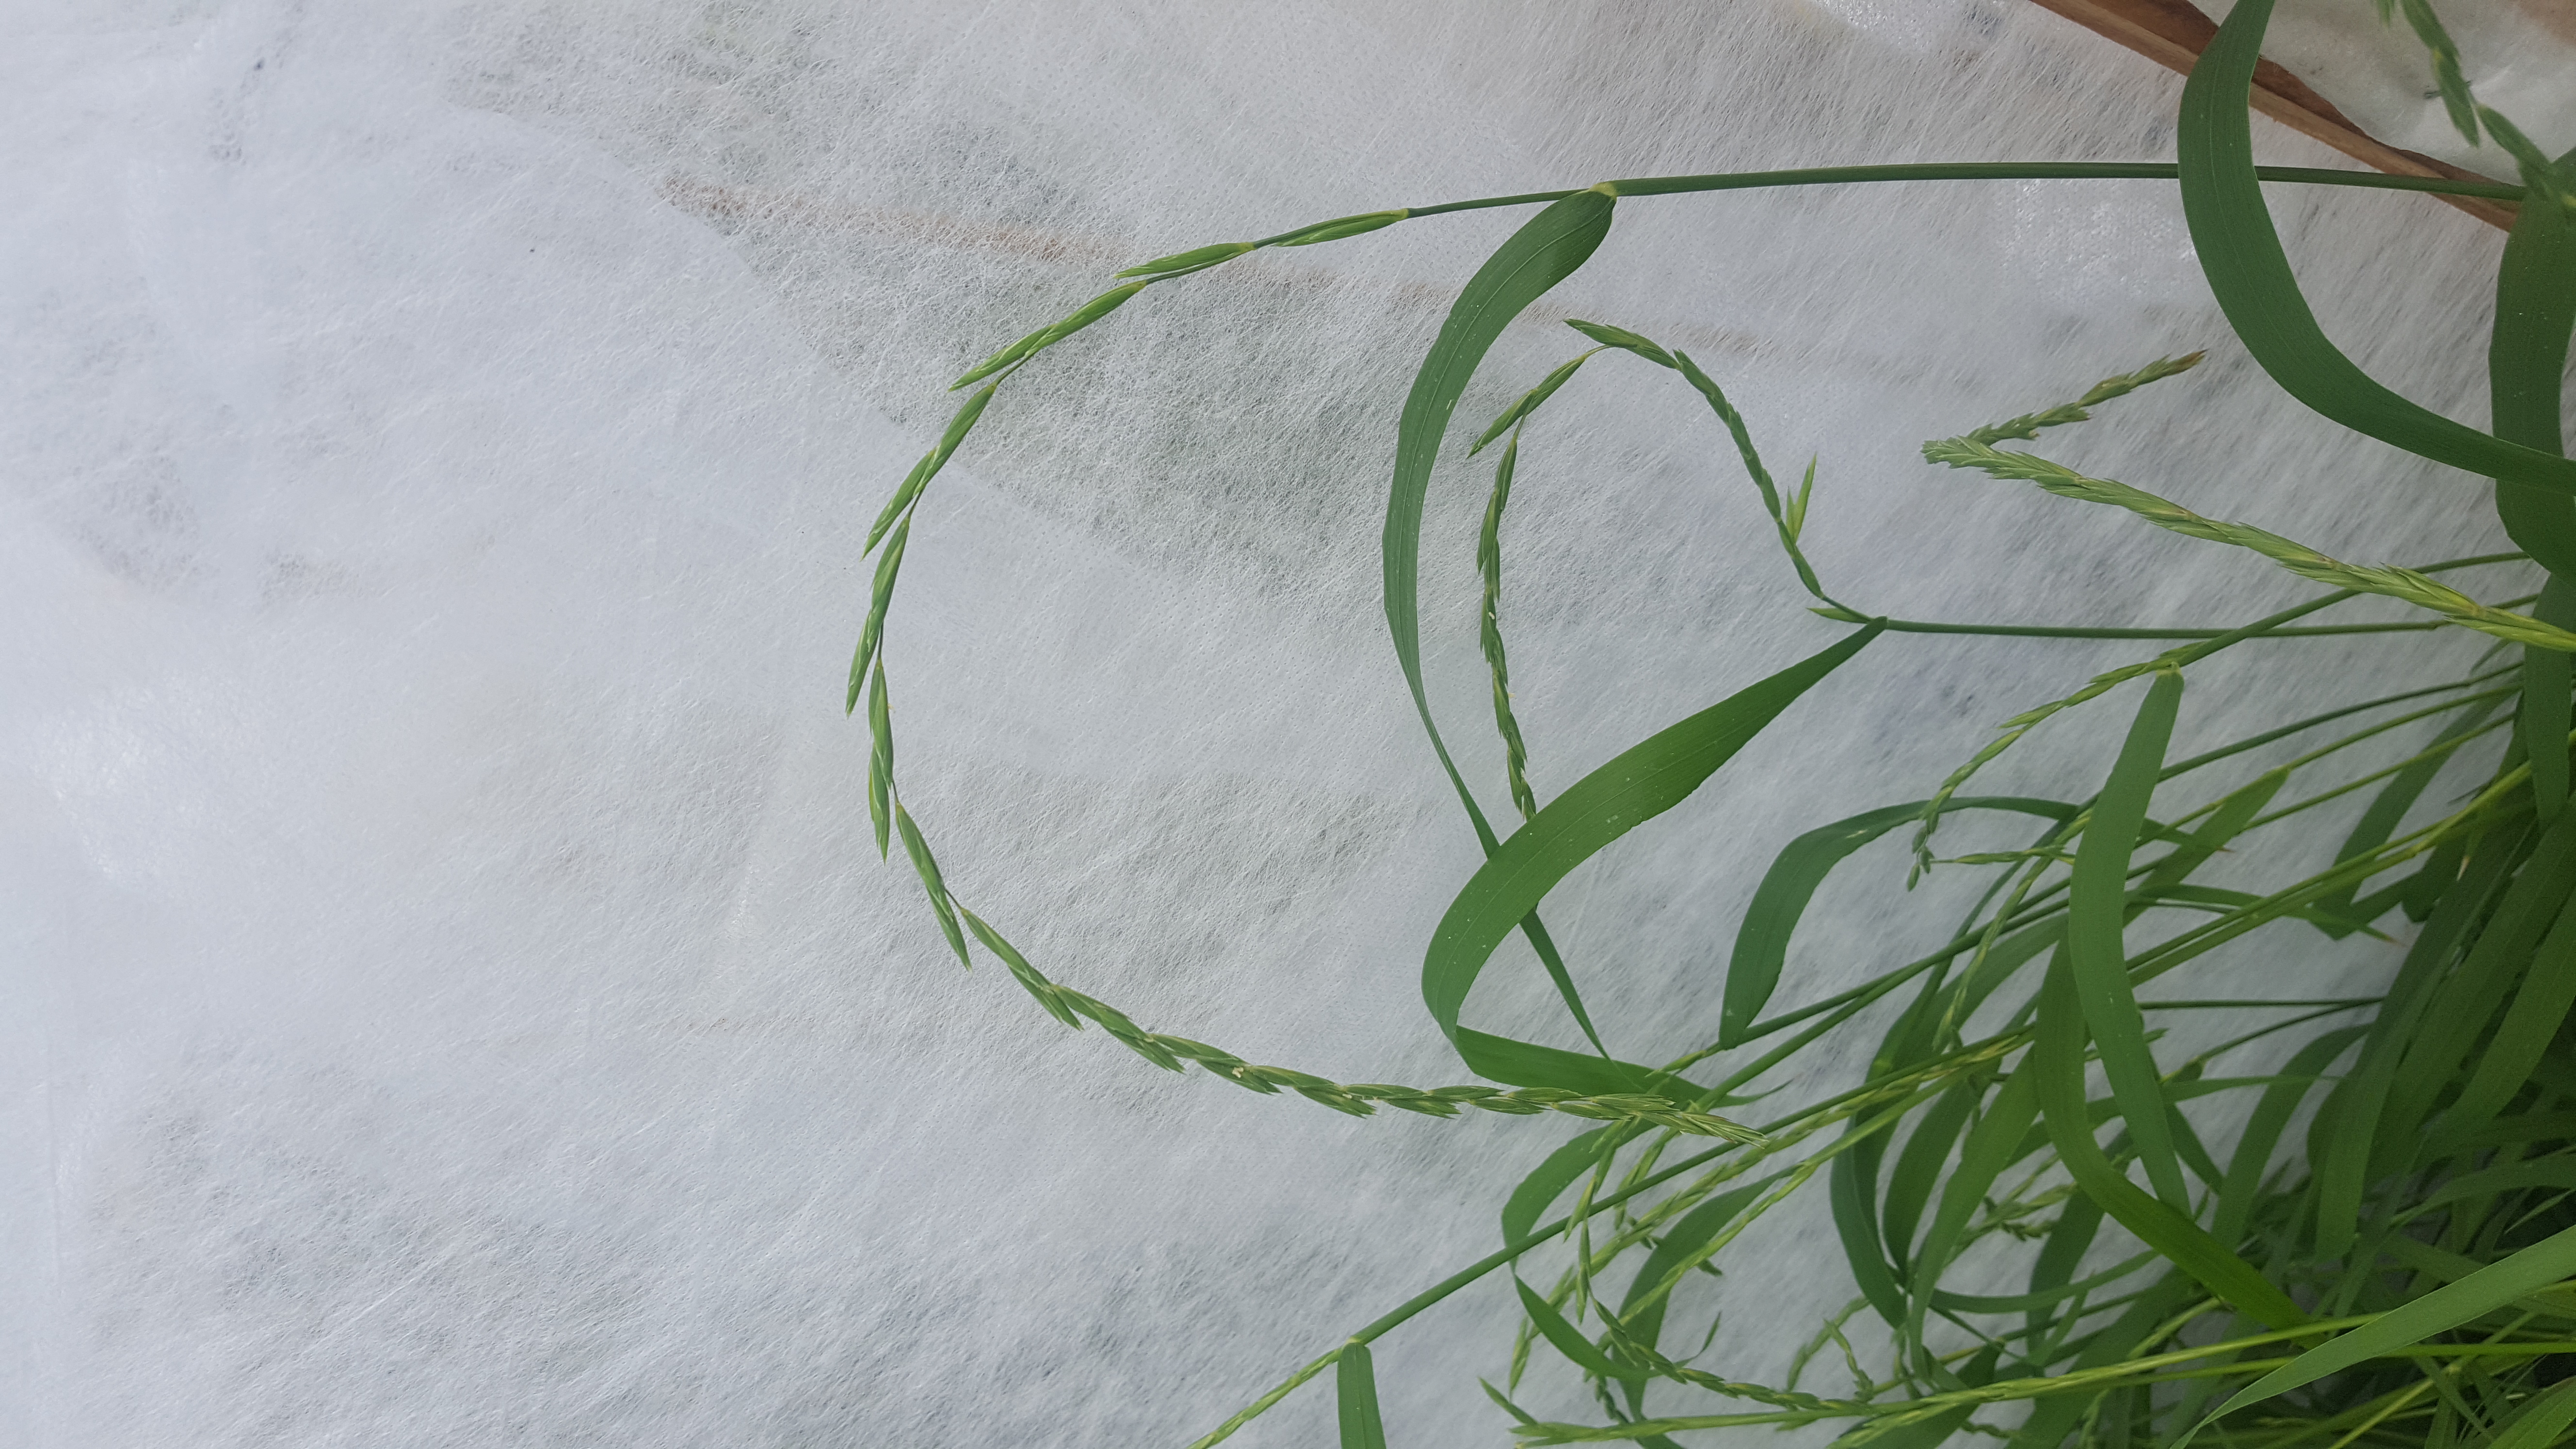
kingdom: Plantae
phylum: Tracheophyta
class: Liliopsida
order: Poales
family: Poaceae
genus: Elymus
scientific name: Elymus fibrosus
